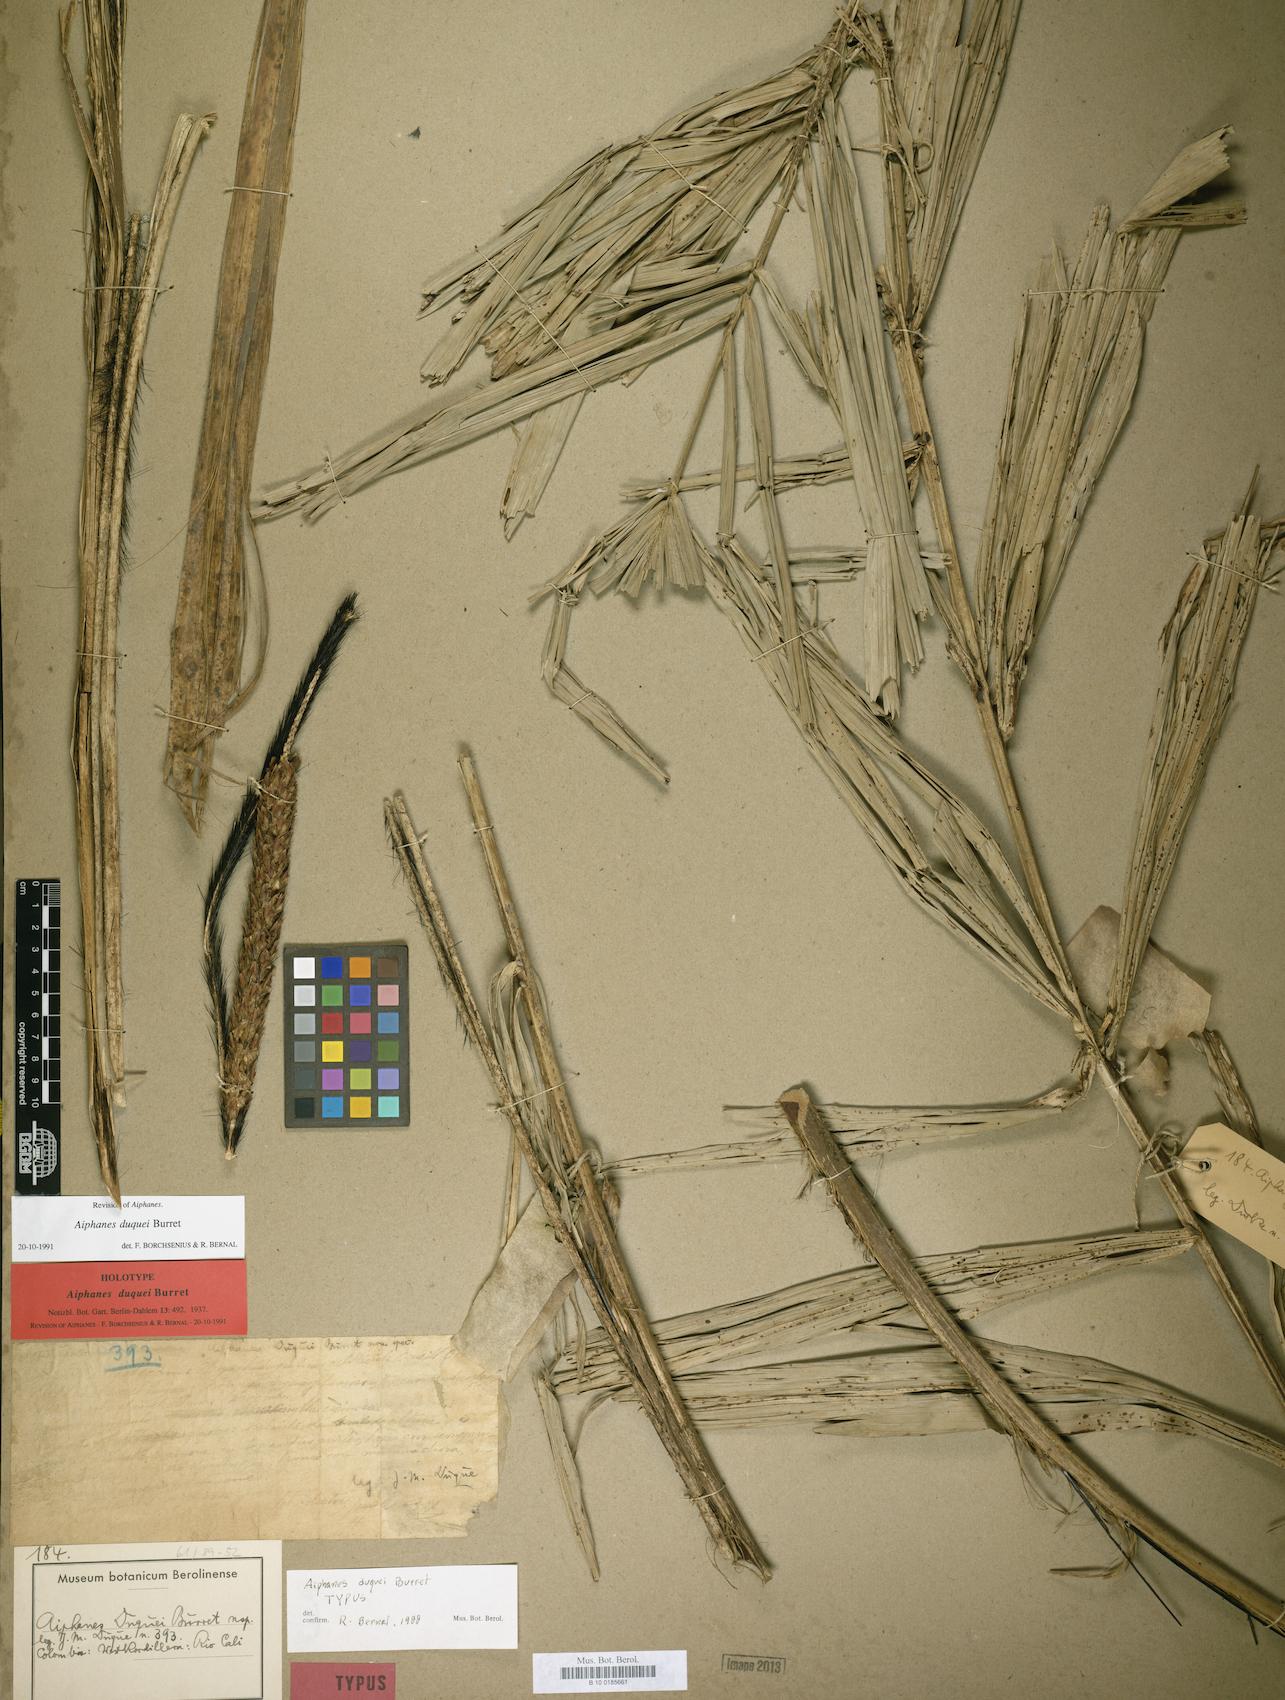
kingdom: Plantae
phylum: Tracheophyta
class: Liliopsida
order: Arecales
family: Arecaceae
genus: Aiphanes
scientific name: Aiphanes duquei
